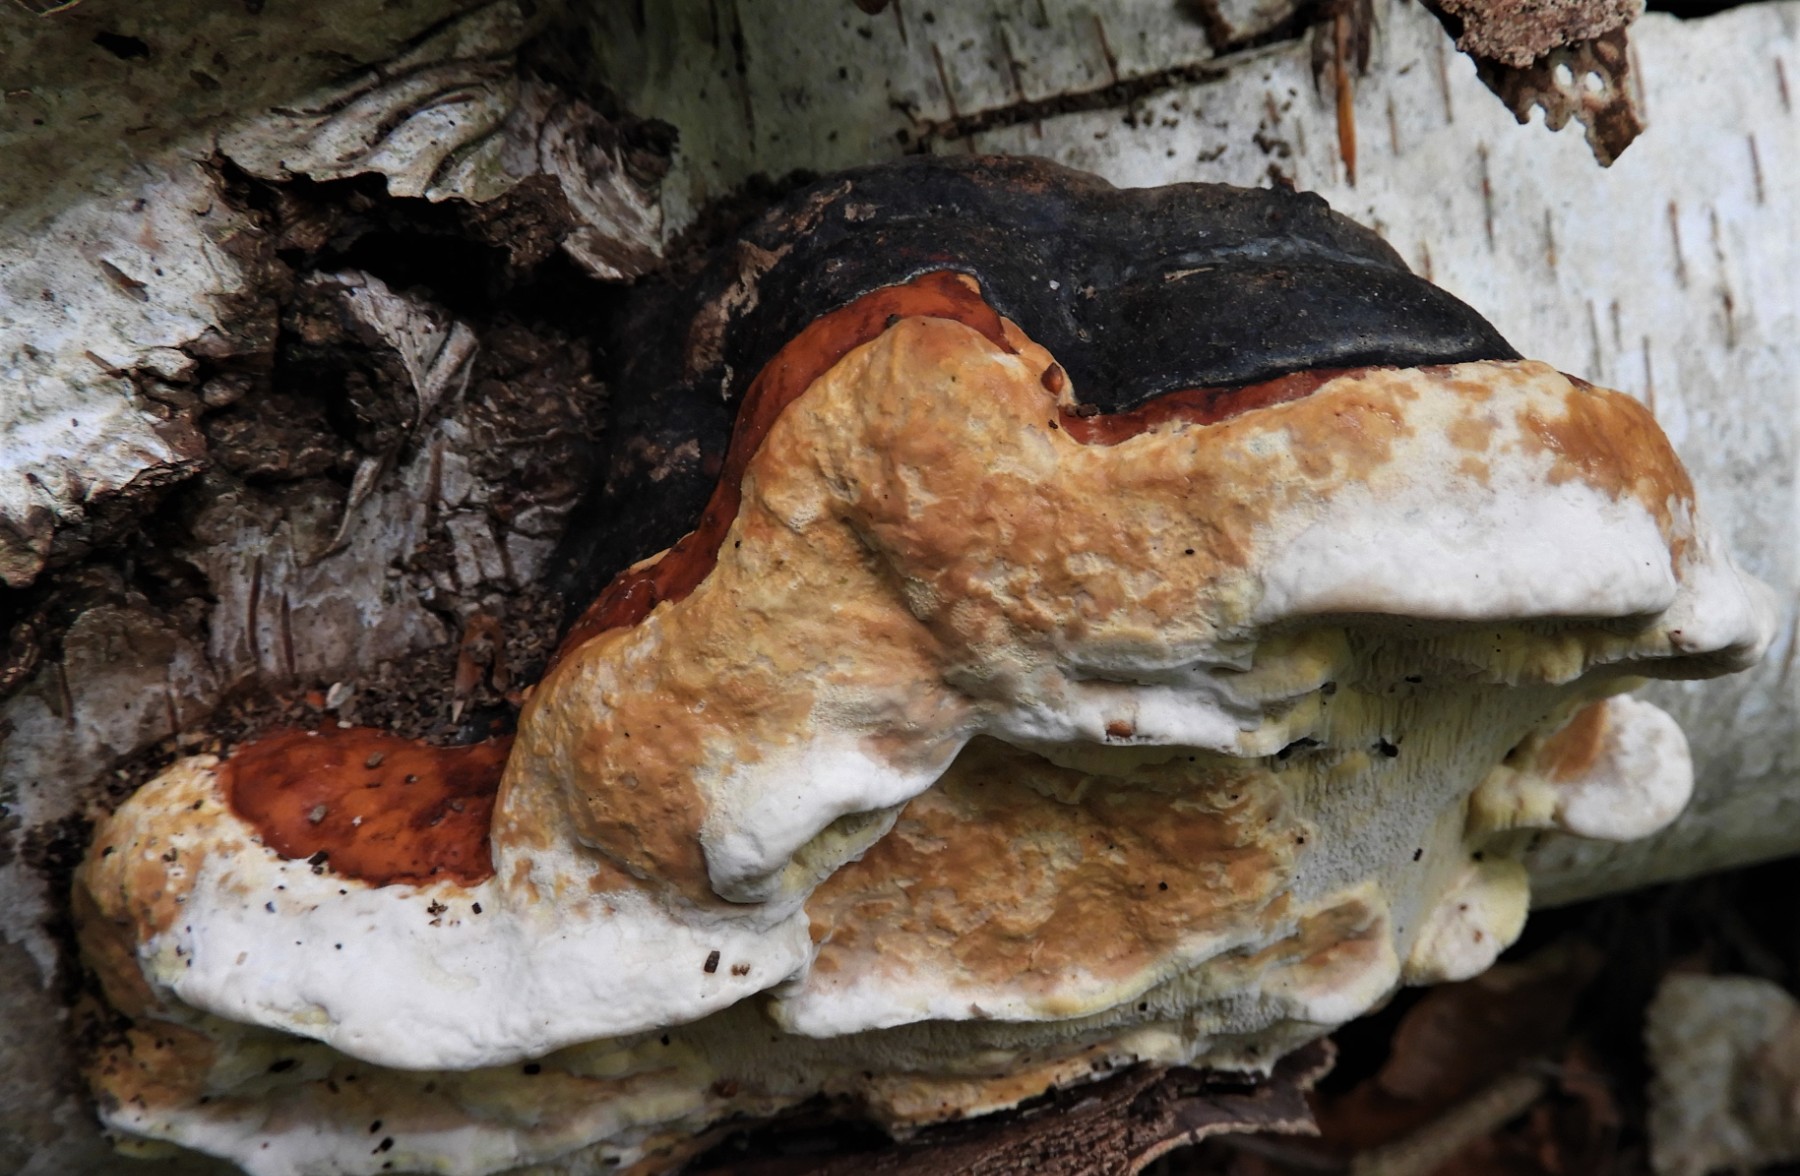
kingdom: Fungi
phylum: Basidiomycota
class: Agaricomycetes
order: Polyporales
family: Fomitopsidaceae
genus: Fomitopsis
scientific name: Fomitopsis pinicola
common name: randbæltet hovporesvamp
